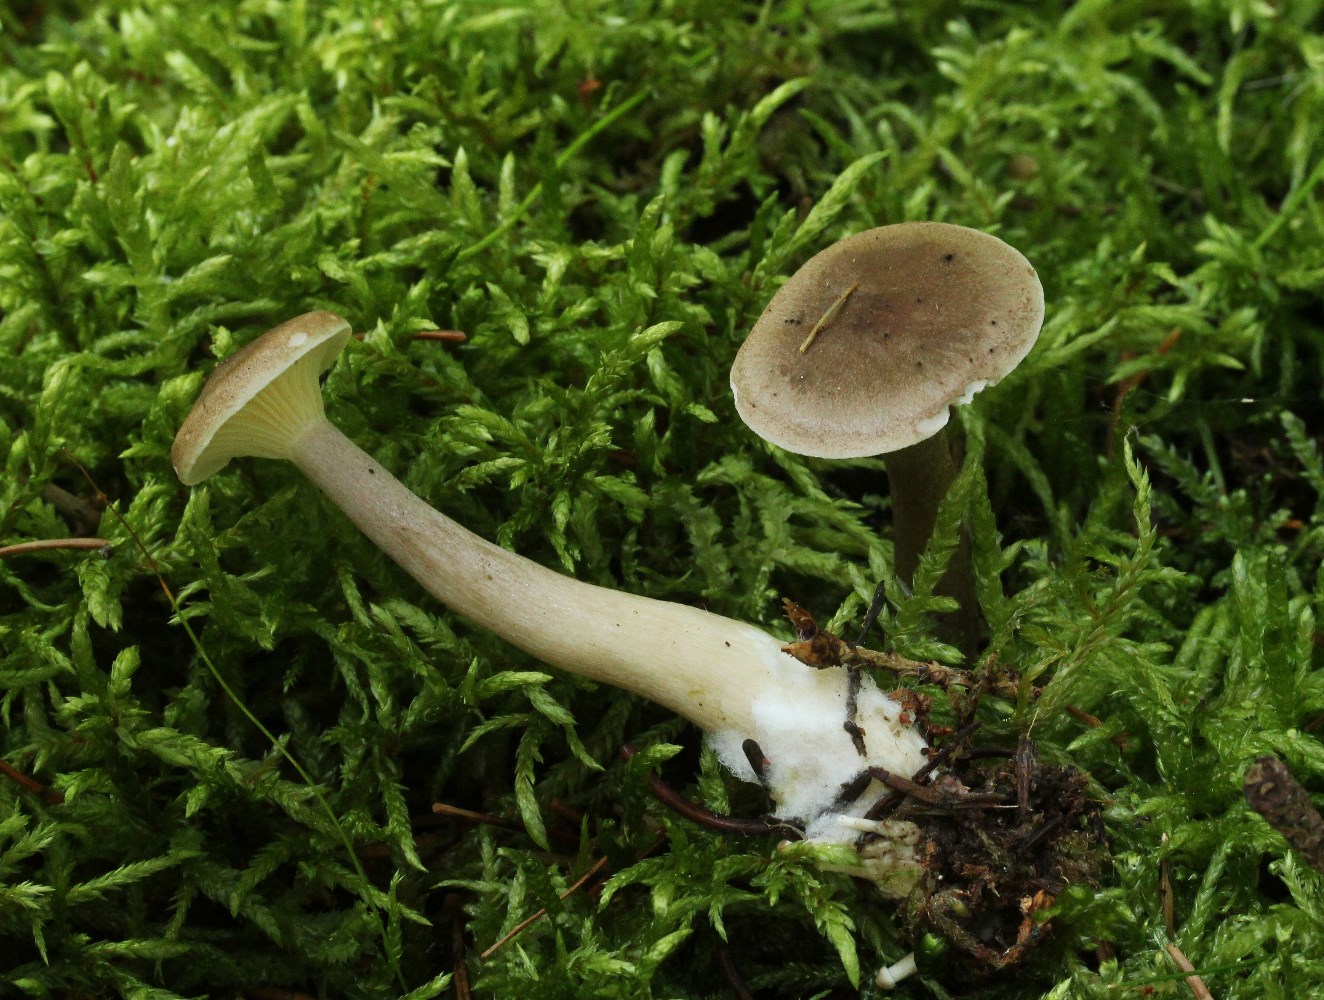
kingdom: Fungi
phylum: Basidiomycota
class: Agaricomycetes
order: Agaricales
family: Hygrophoraceae
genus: Ampulloclitocybe
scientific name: Ampulloclitocybe clavipes
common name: køllefod
